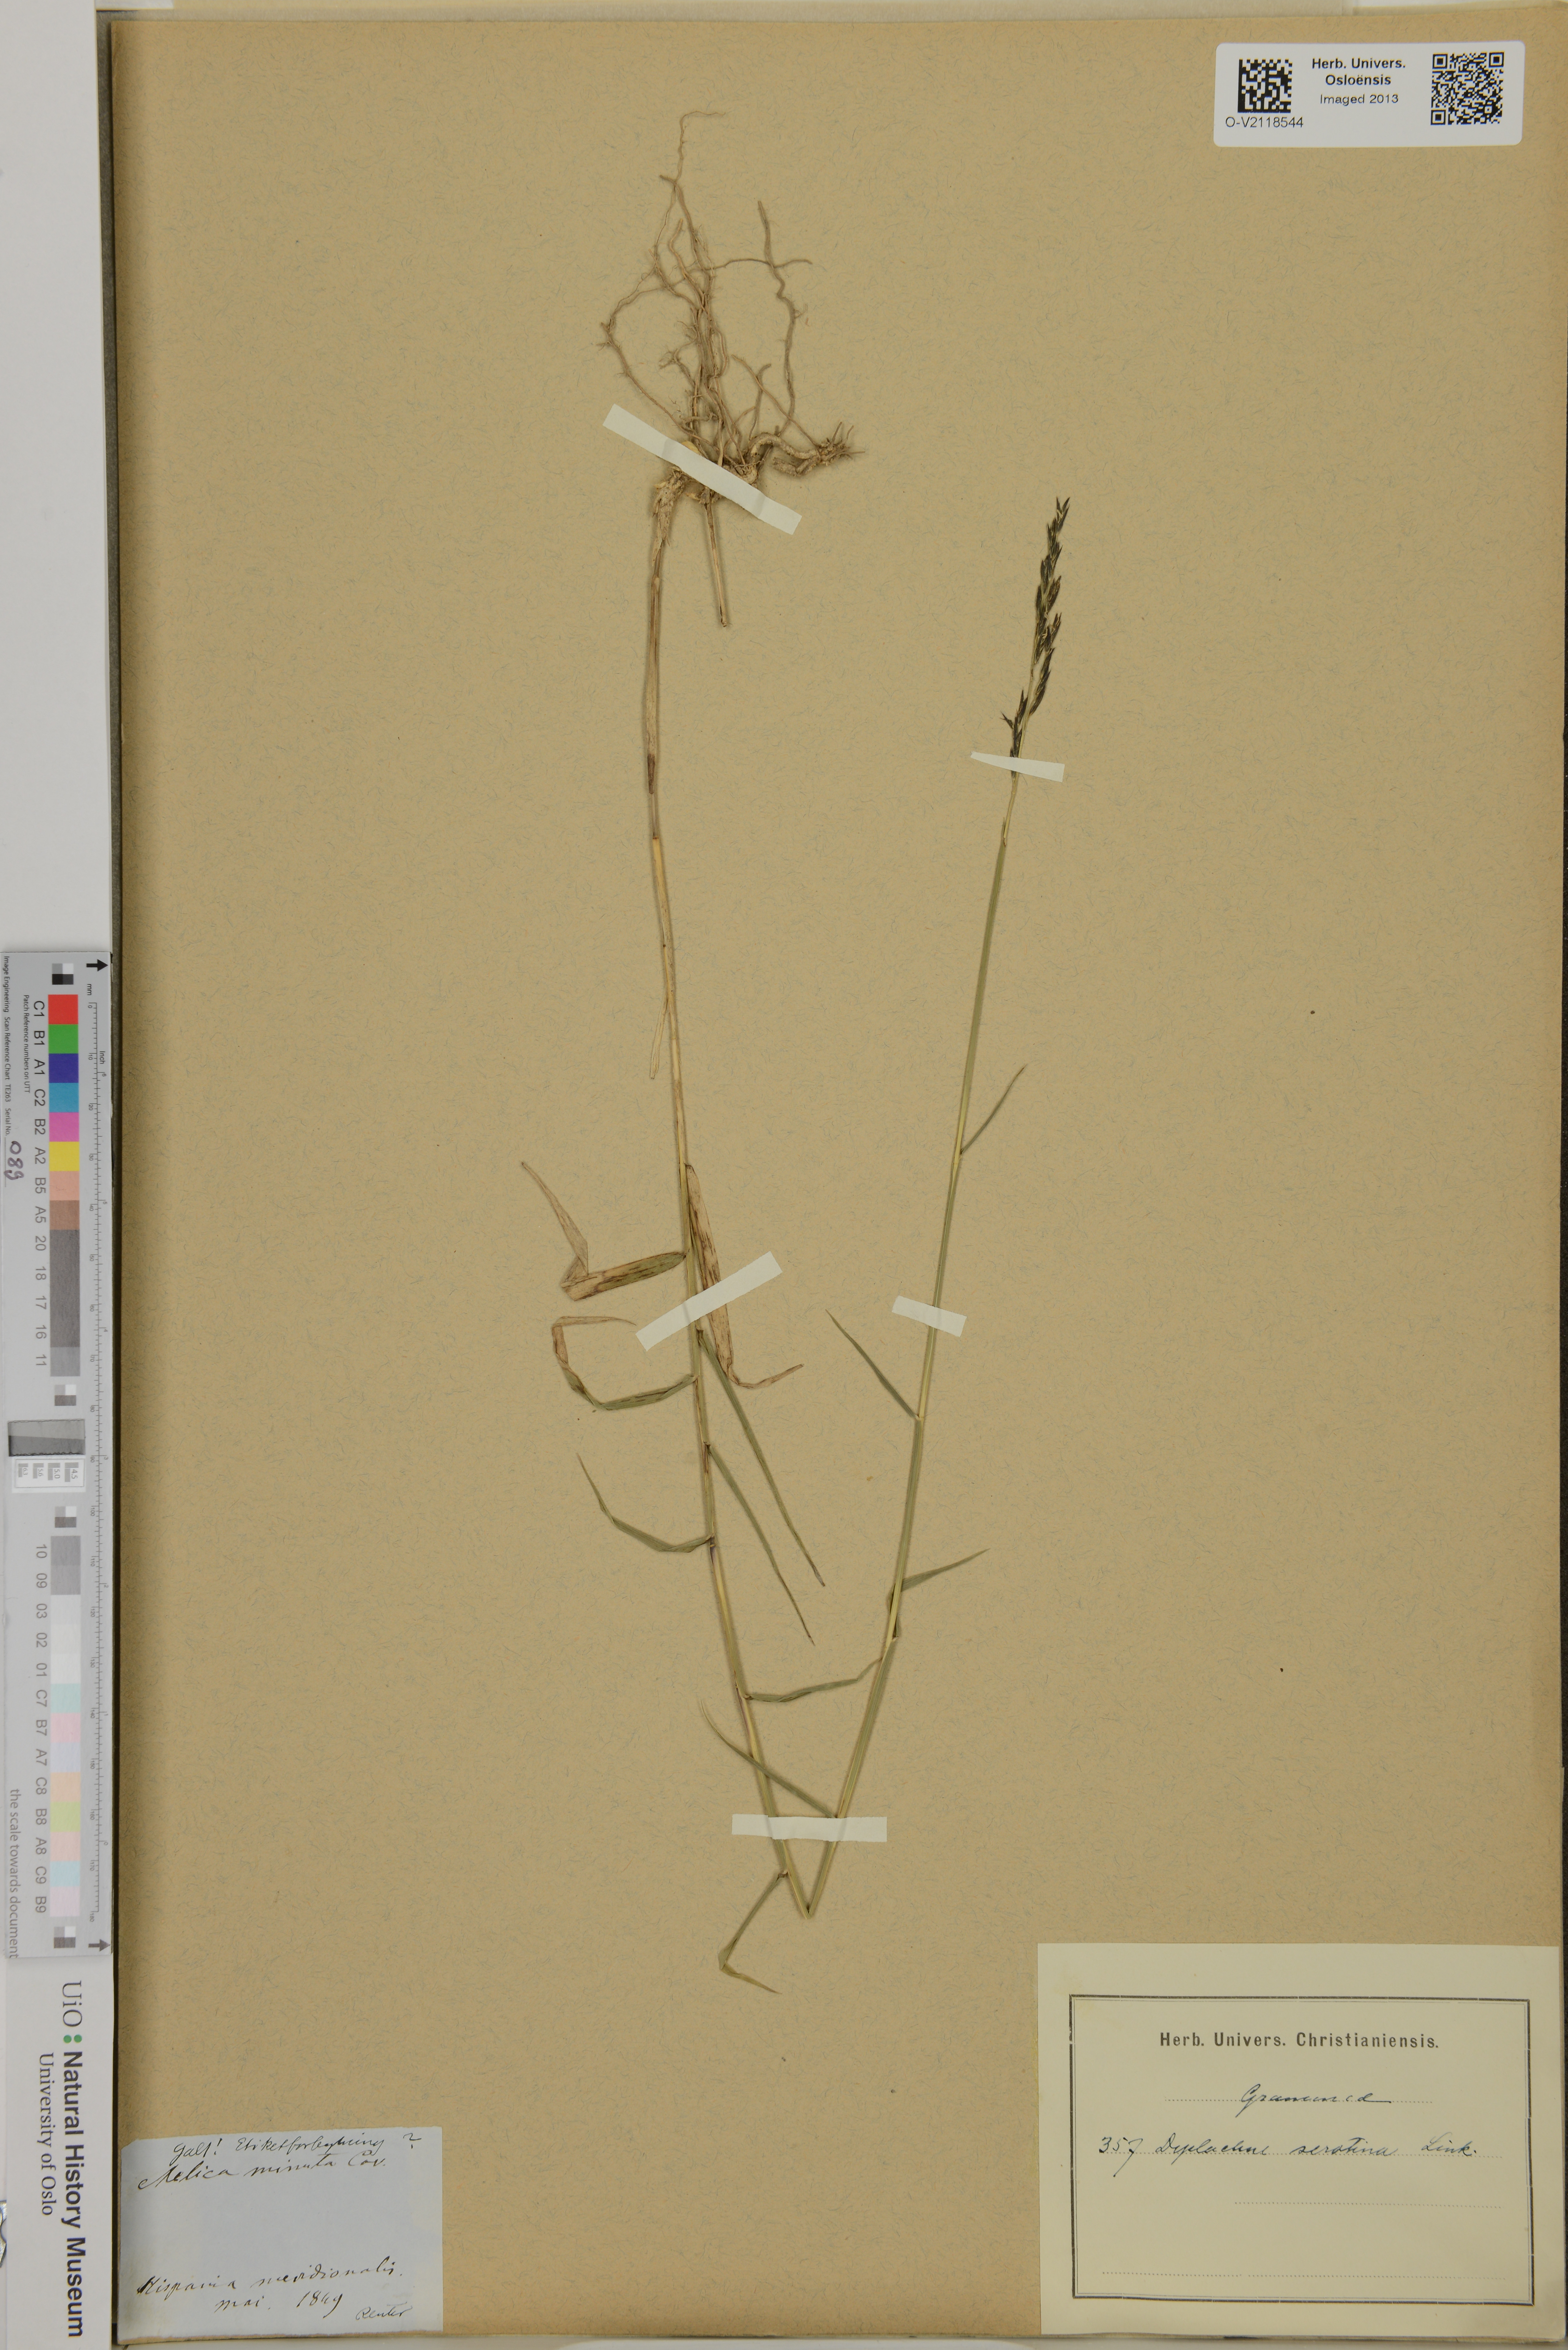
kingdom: Plantae
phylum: Tracheophyta
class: Liliopsida
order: Poales
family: Poaceae
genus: Cleistogenes
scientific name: Cleistogenes serotina
